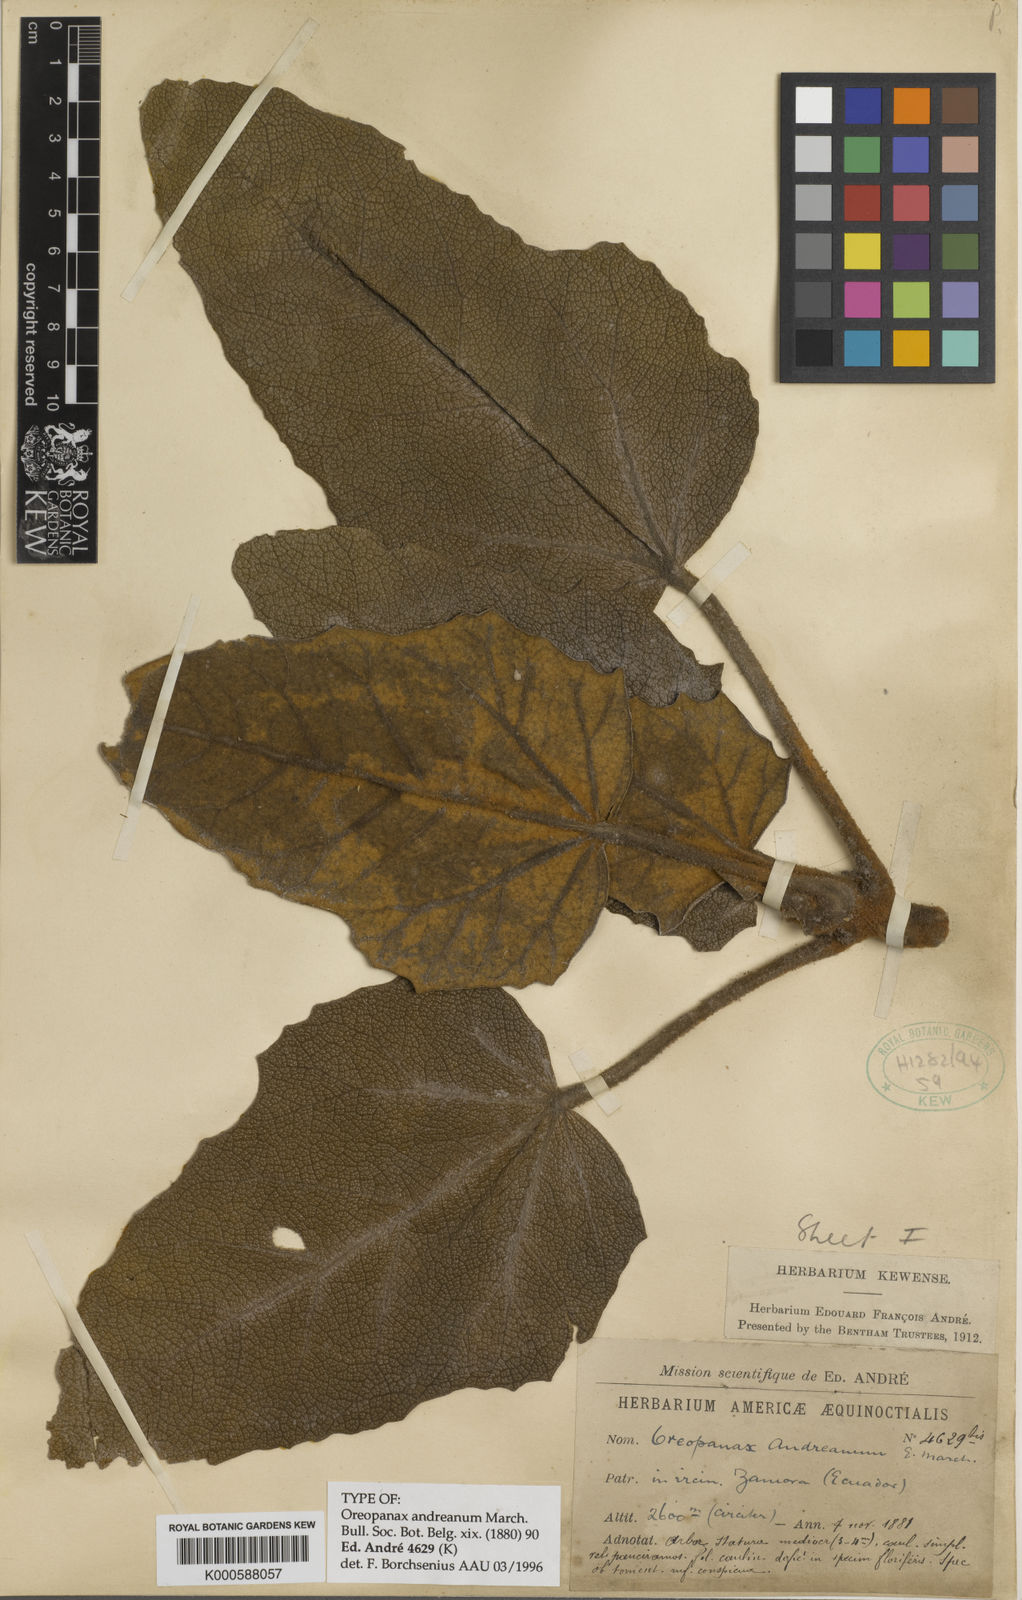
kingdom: Plantae
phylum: Tracheophyta
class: Magnoliopsida
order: Apiales
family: Araliaceae
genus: Oreopanax
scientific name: Oreopanax andreanus
